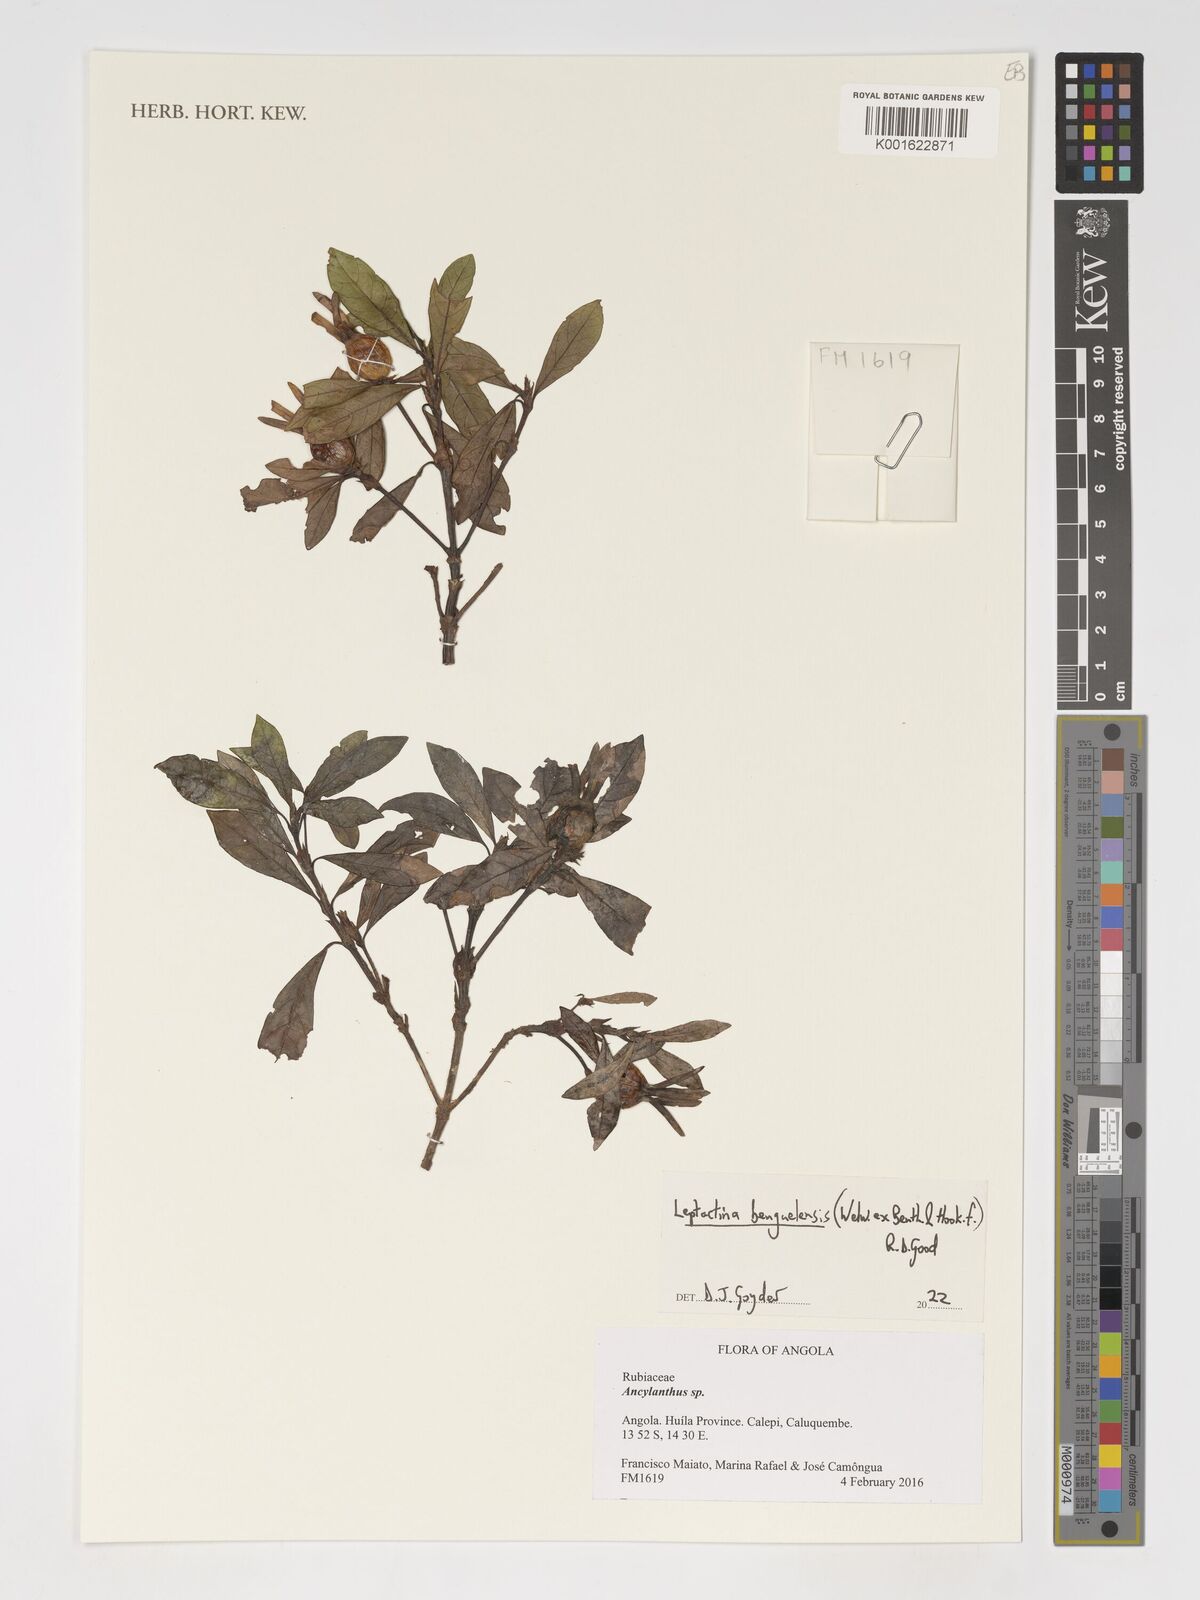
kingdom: Plantae
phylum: Tracheophyta
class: Magnoliopsida
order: Gentianales
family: Rubiaceae
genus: Leptactina
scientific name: Leptactina benguelensis
